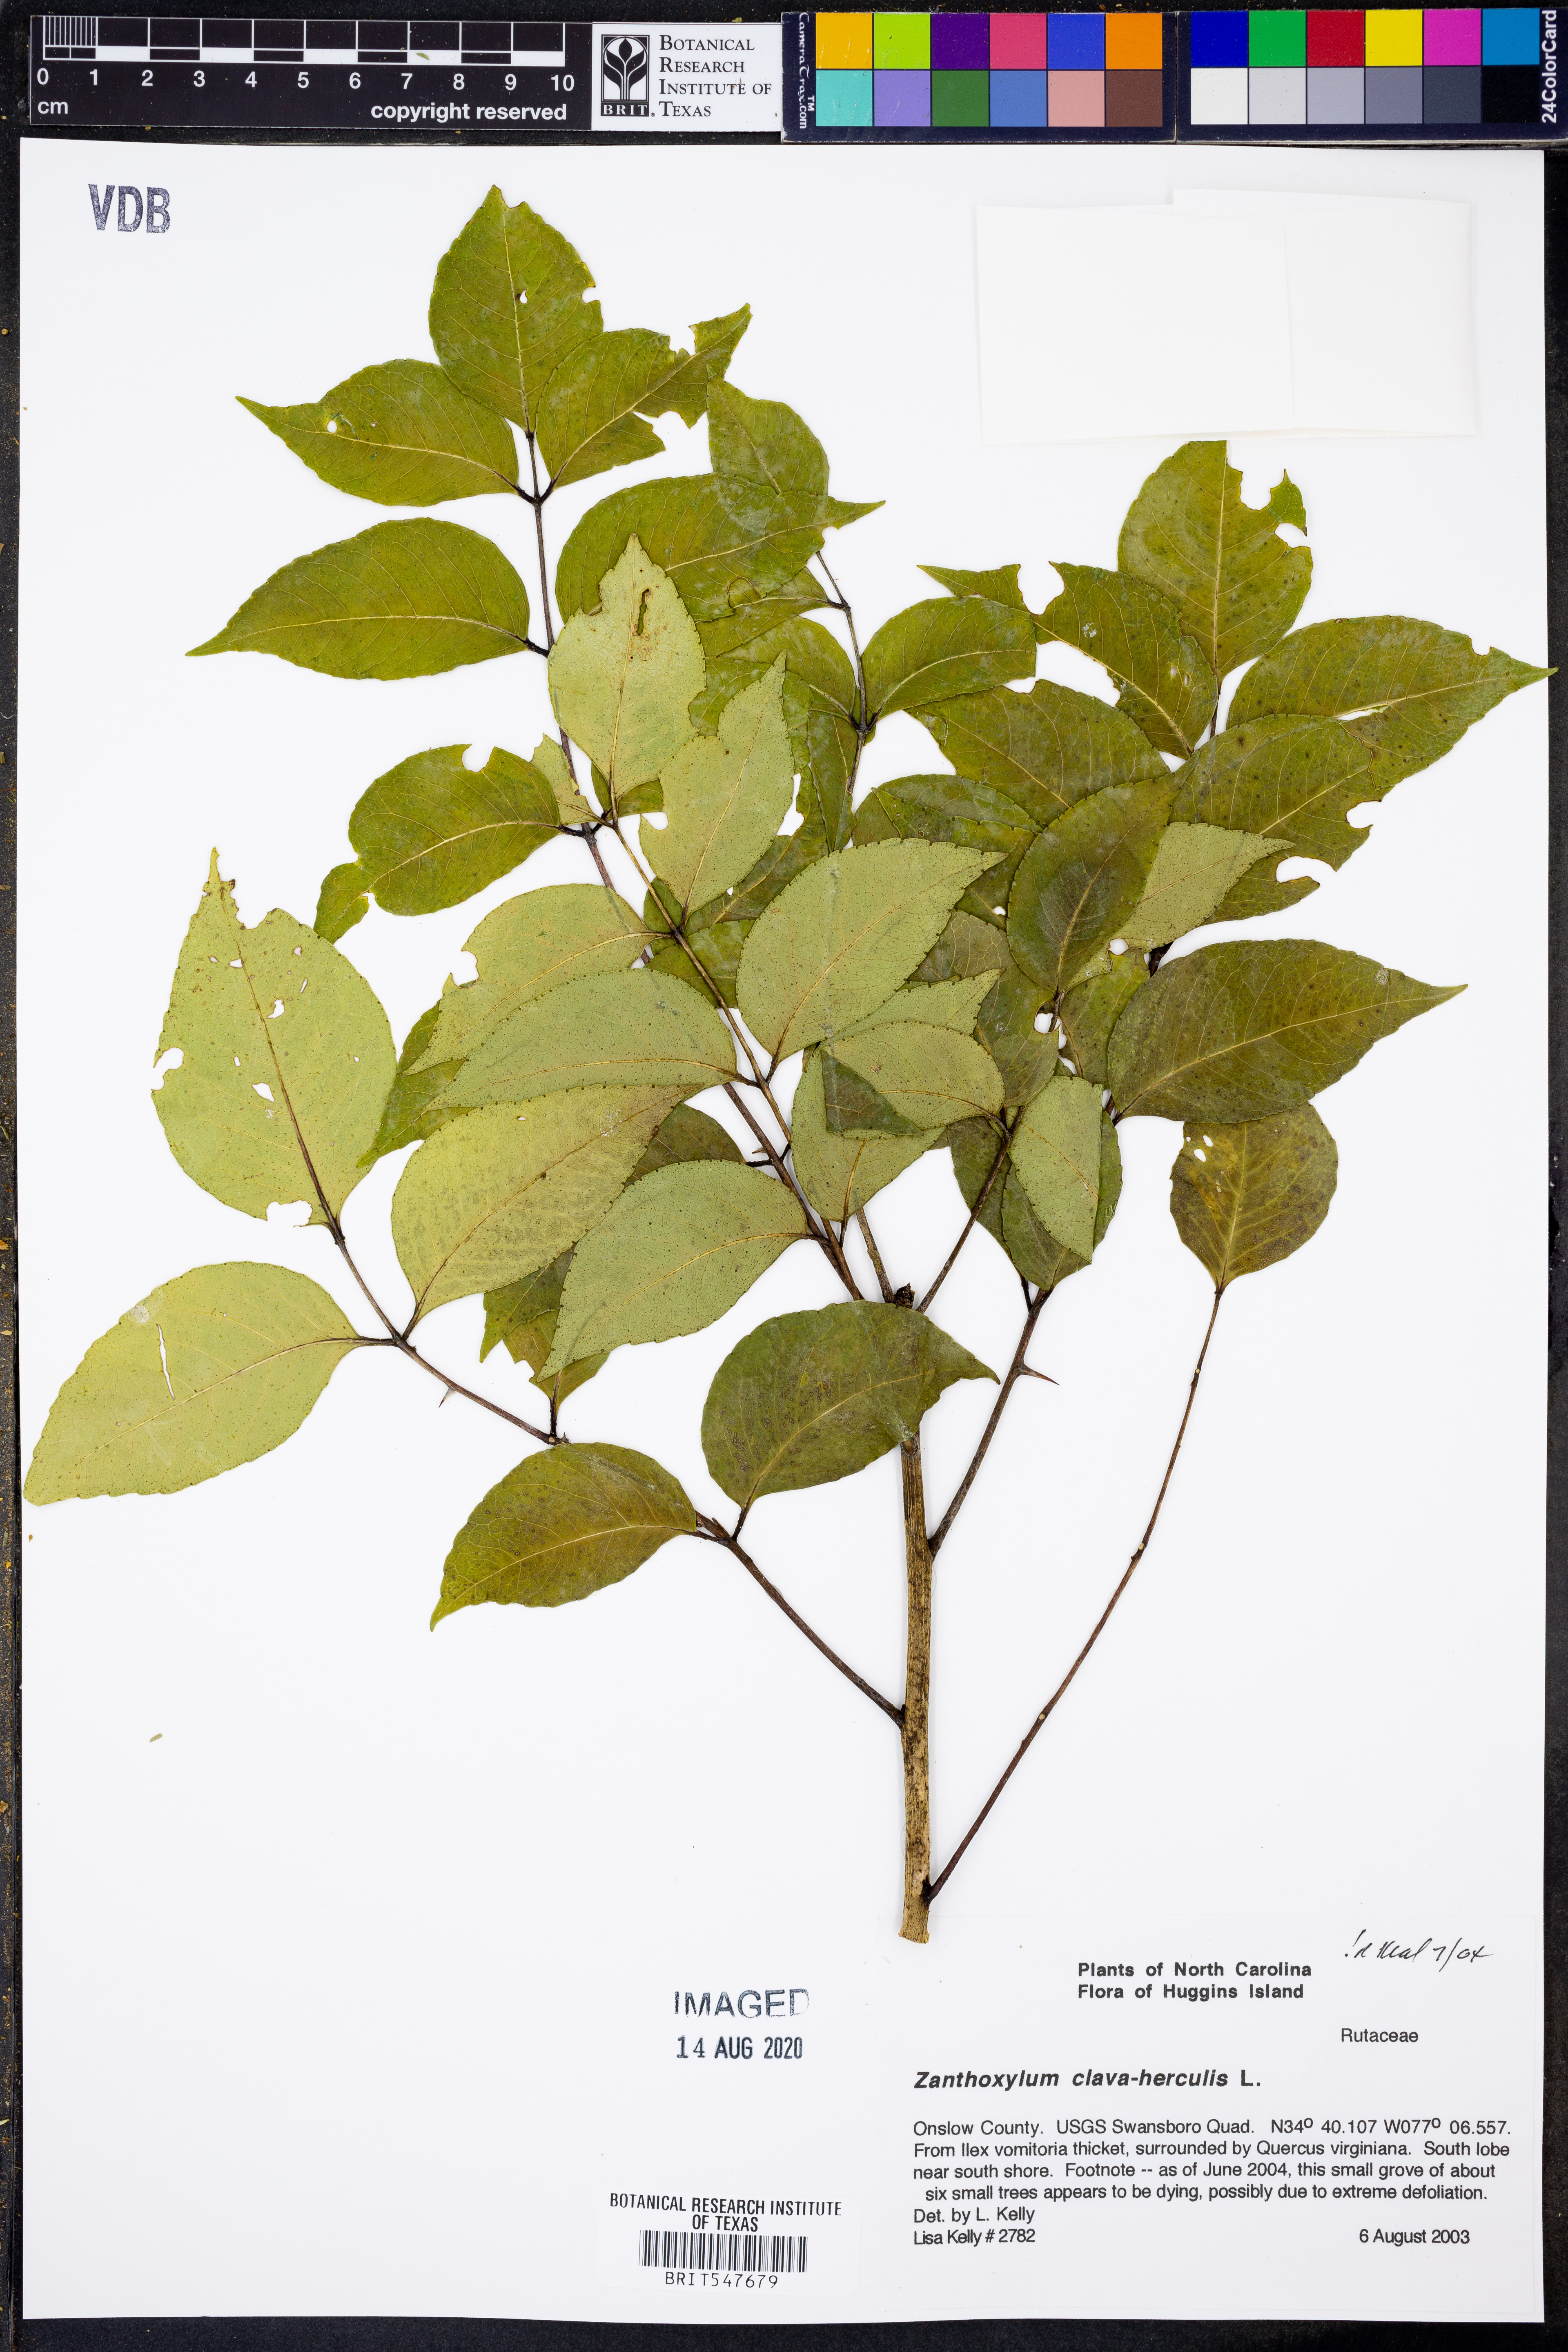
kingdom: Plantae
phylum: Tracheophyta
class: Magnoliopsida
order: Sapindales
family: Rutaceae
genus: Zanthoxylum
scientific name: Zanthoxylum avicennae
